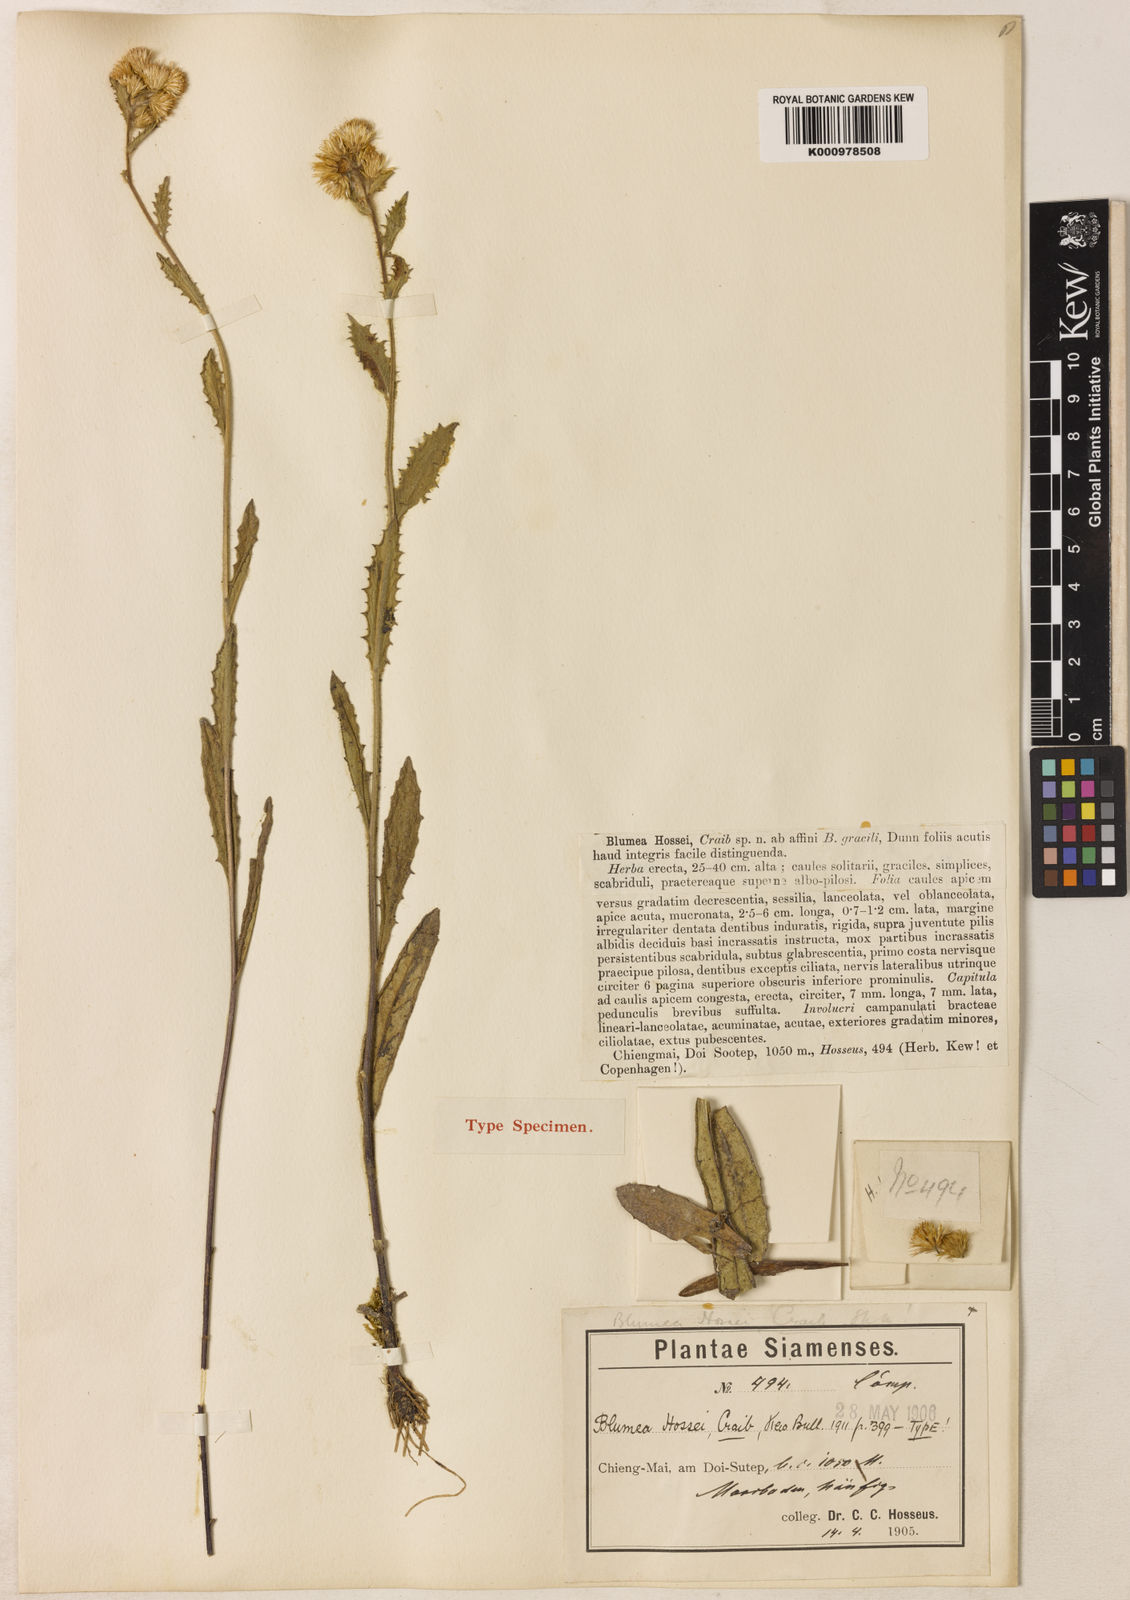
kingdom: Plantae
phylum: Tracheophyta
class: Magnoliopsida
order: Asterales
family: Asteraceae
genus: Blumea
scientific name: Blumea hossei
